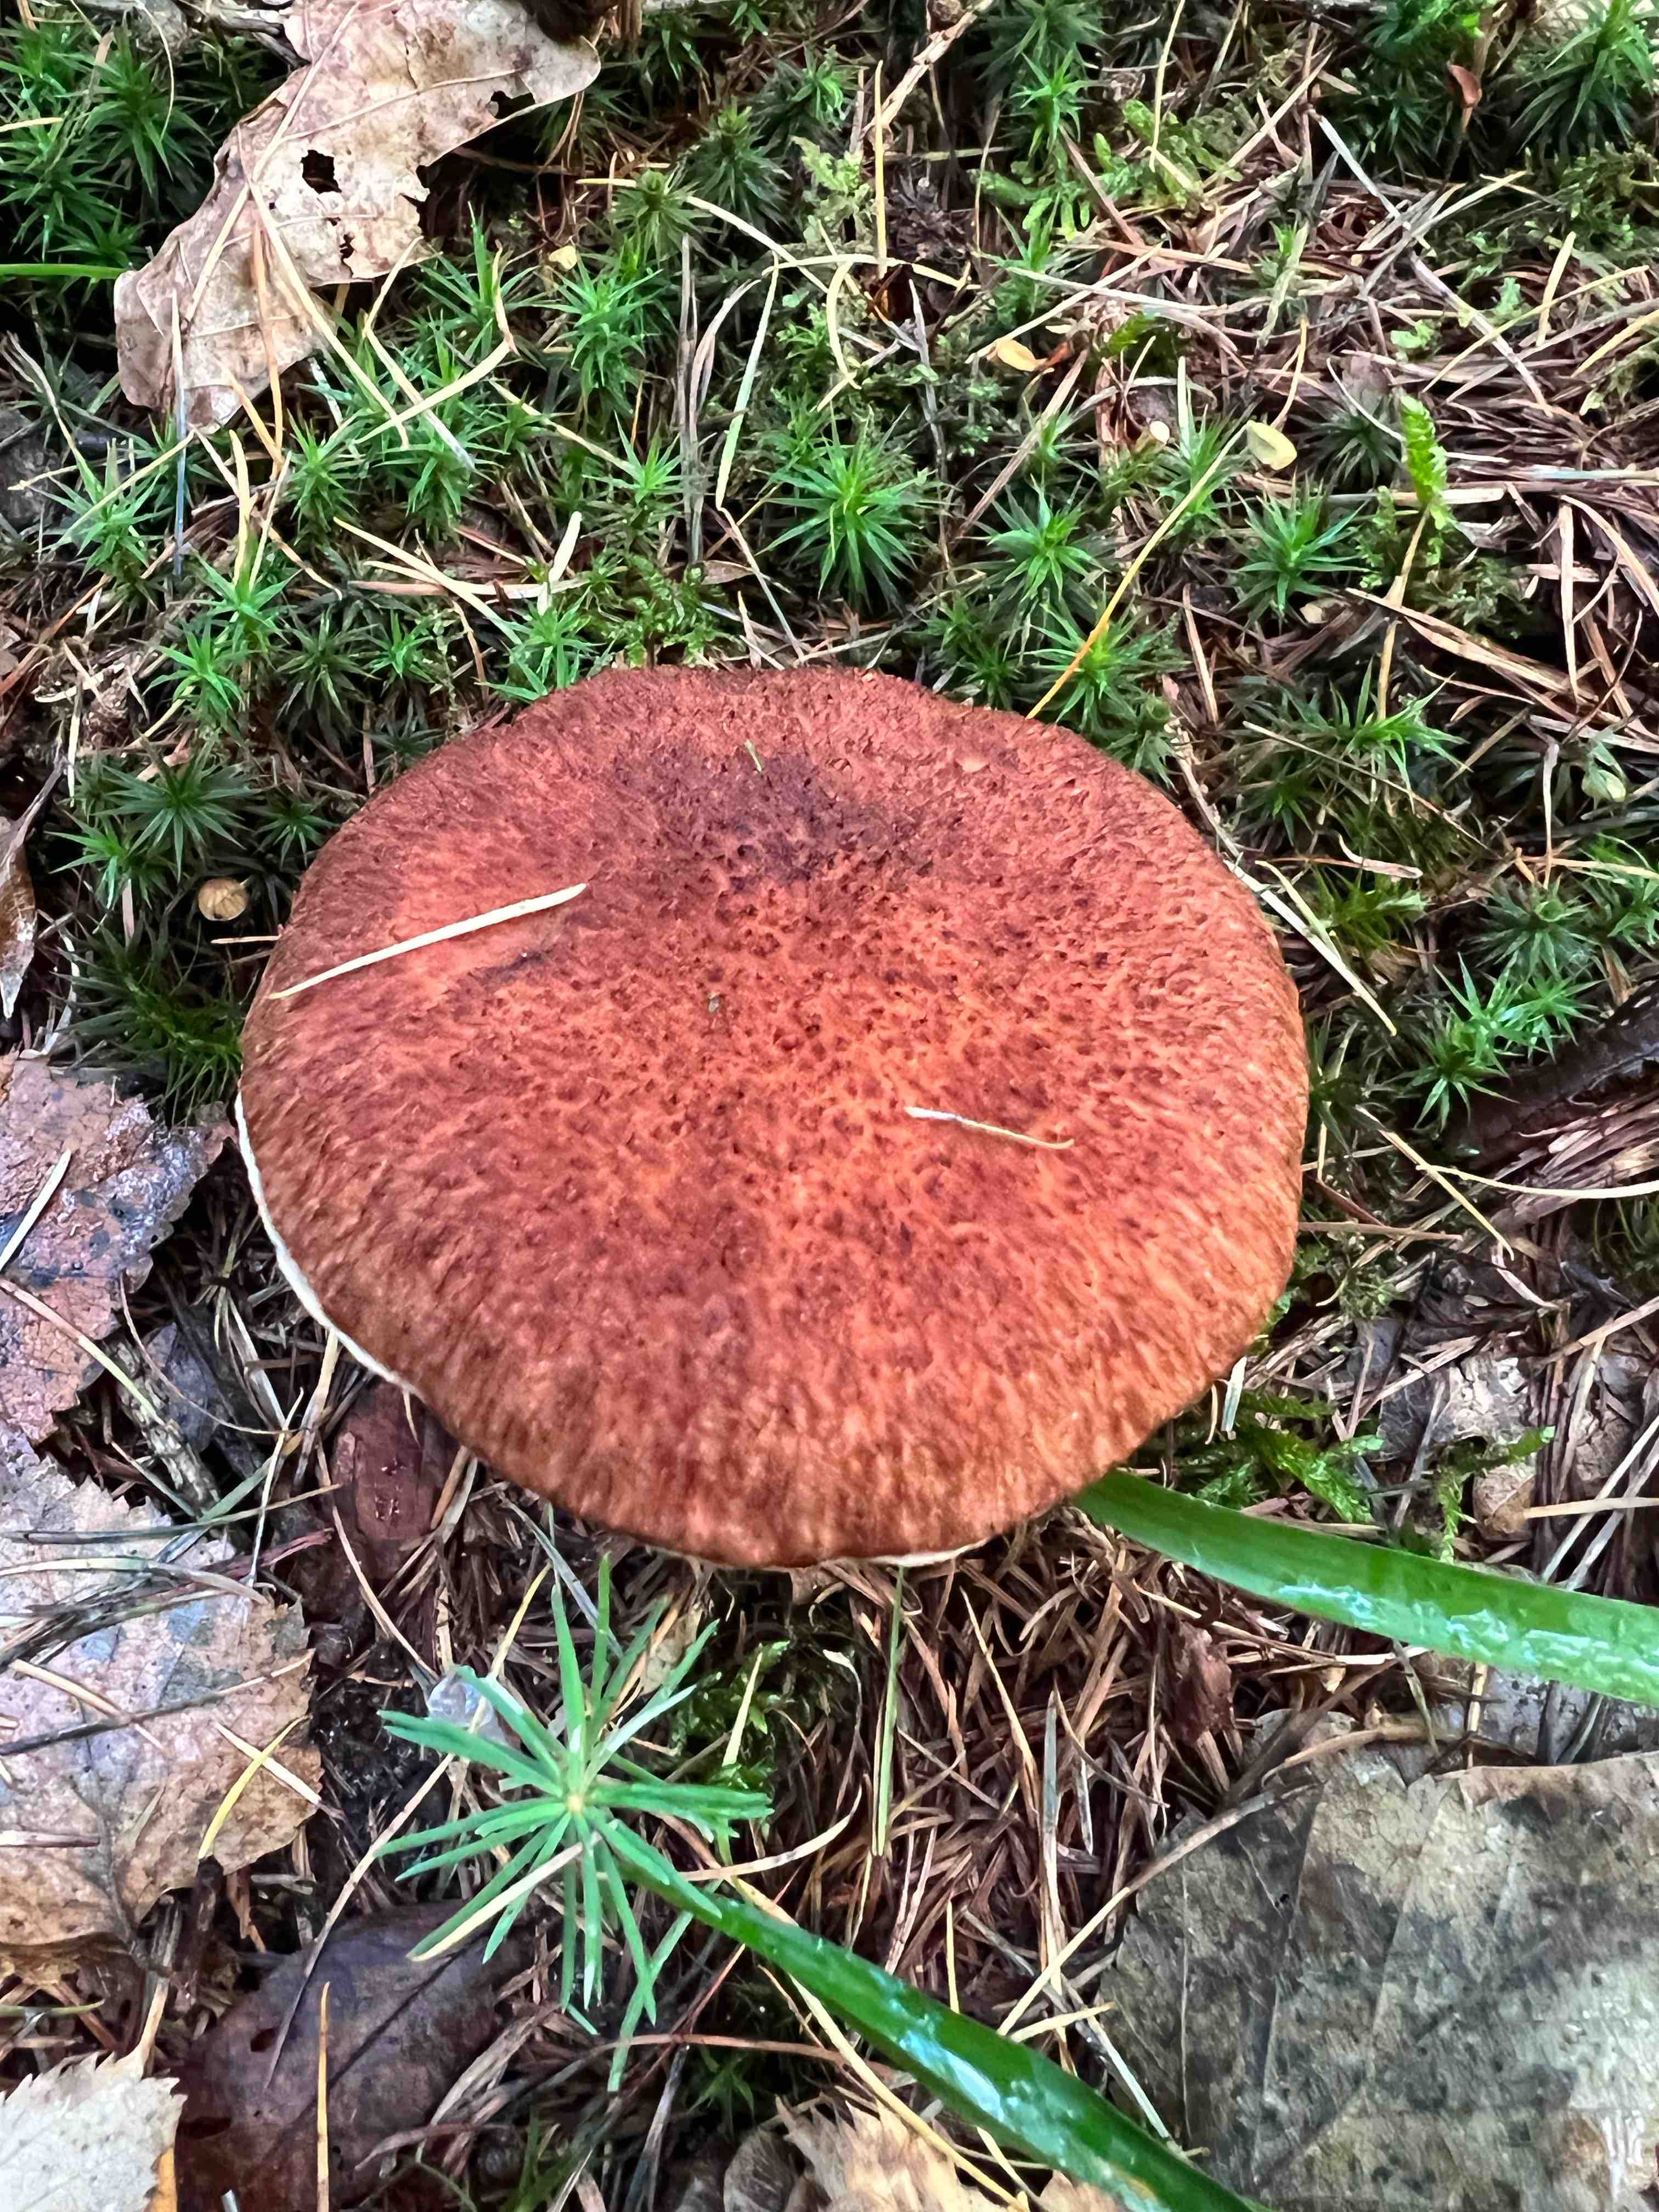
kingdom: Fungi
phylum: Basidiomycota
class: Agaricomycetes
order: Boletales
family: Suillaceae
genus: Suillus
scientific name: Suillus cavipes
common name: hulstokket slimrørhat
